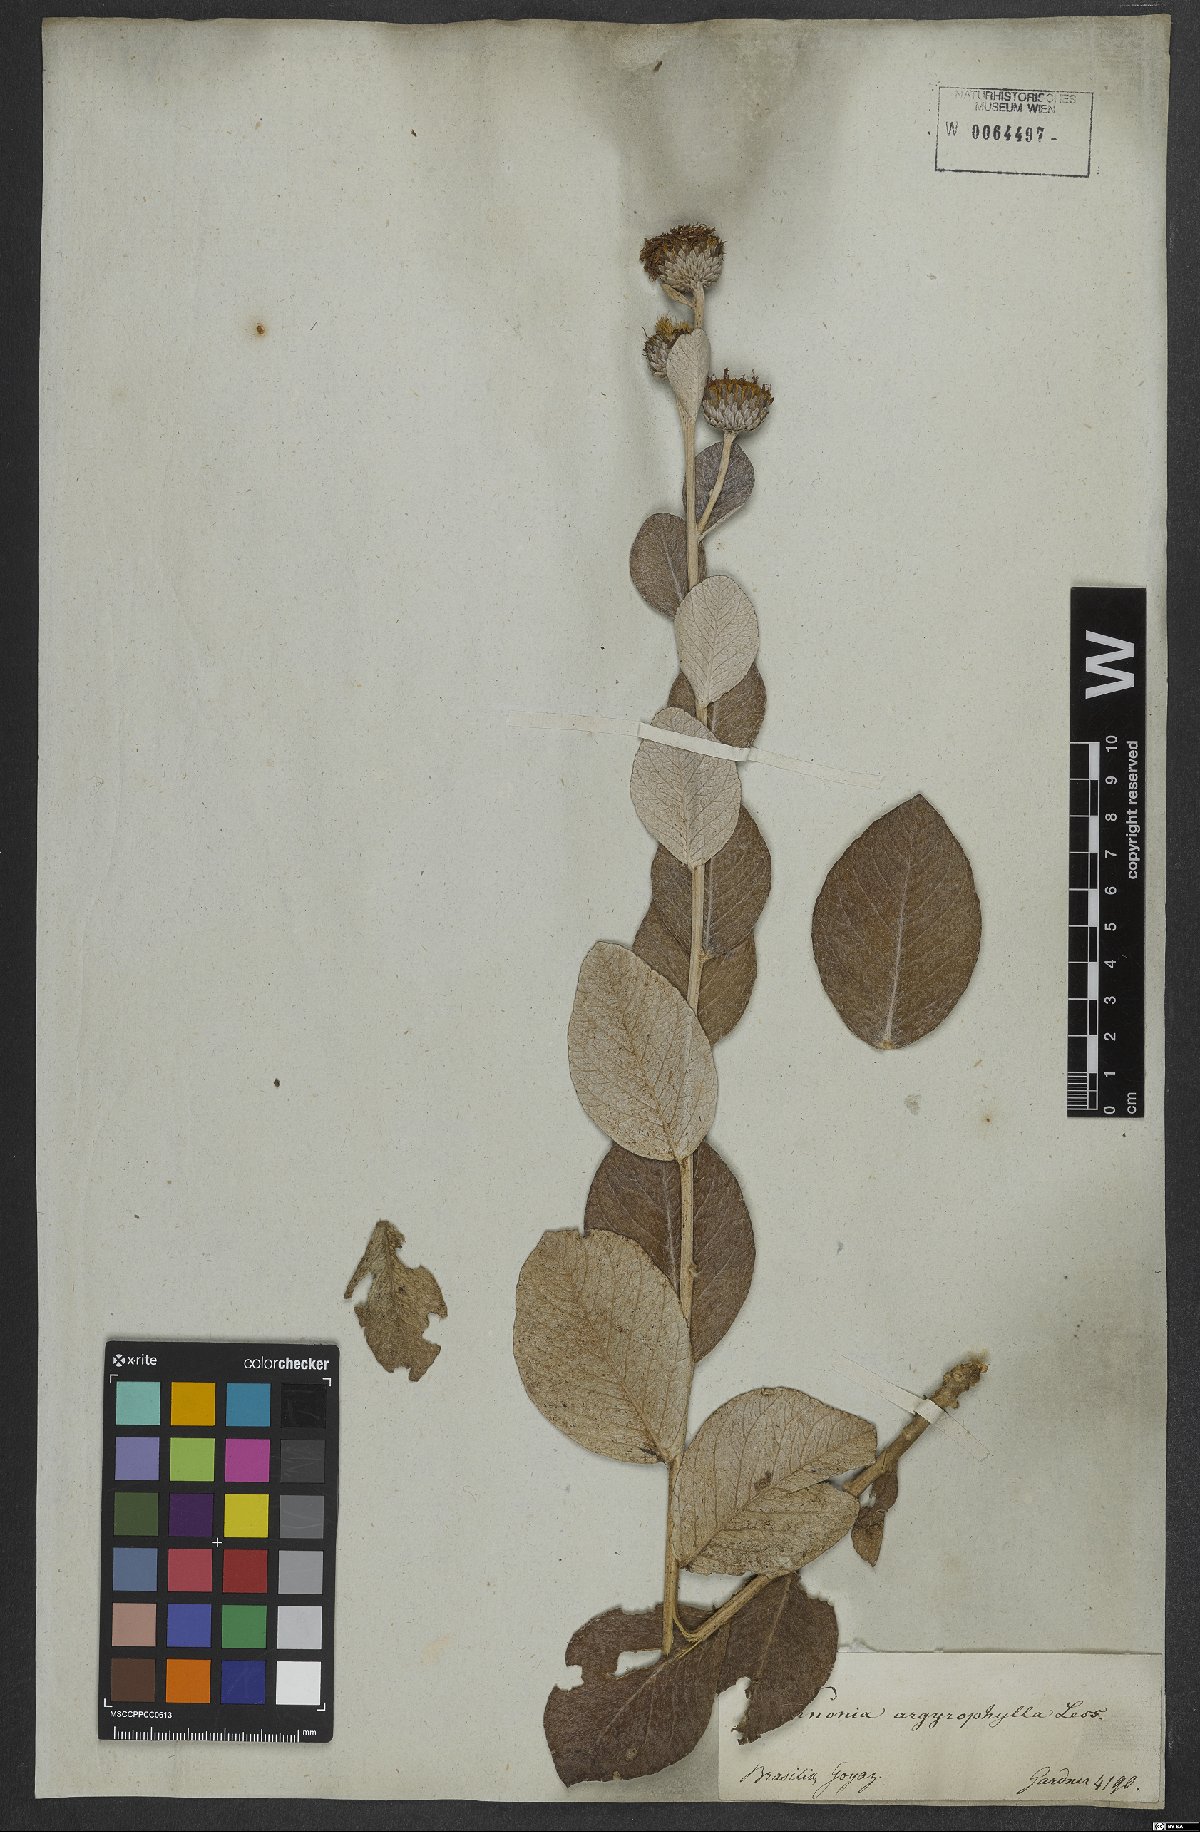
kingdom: Plantae
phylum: Tracheophyta
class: Magnoliopsida
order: Asterales
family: Asteraceae
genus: Lessingianthus
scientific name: Lessingianthus argyrophyllus
